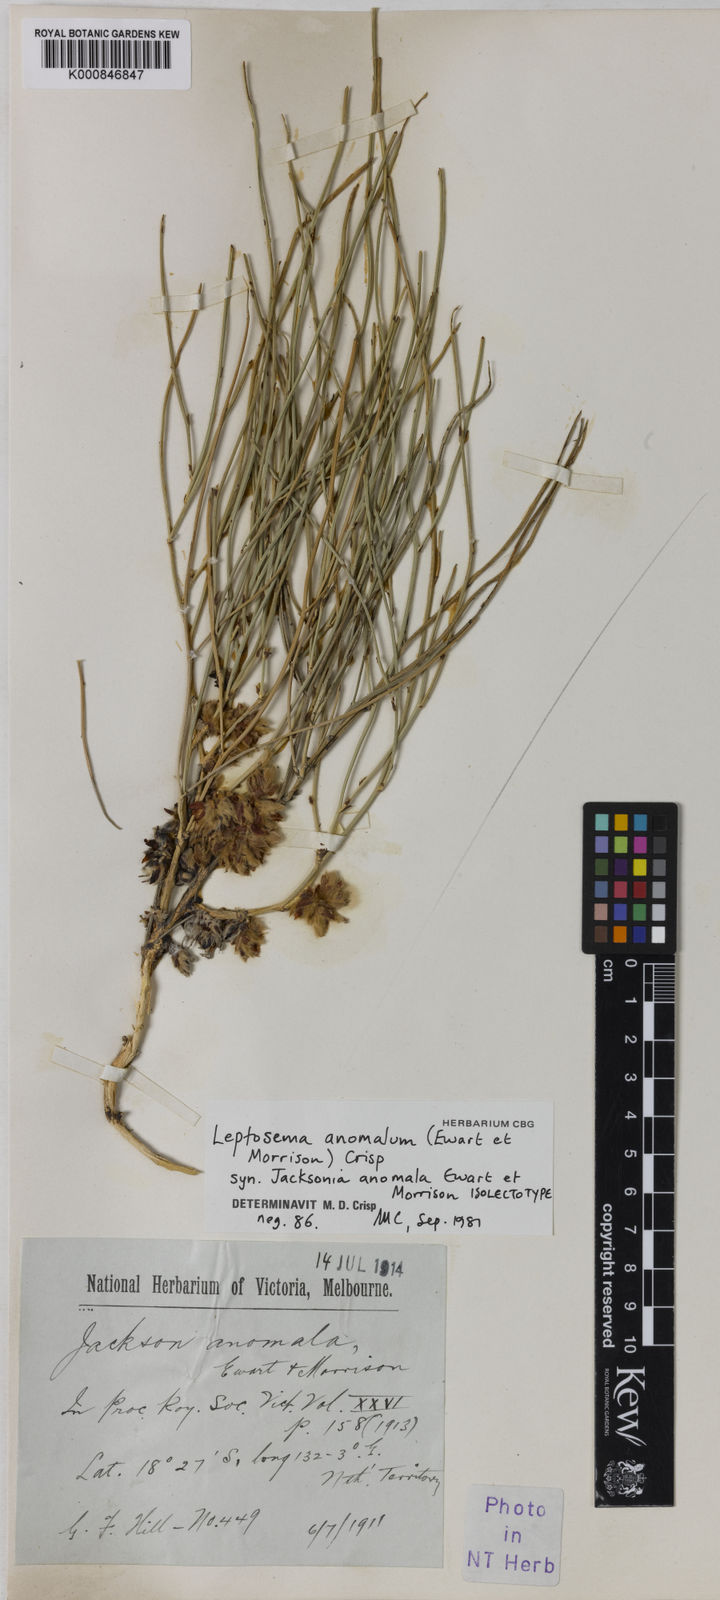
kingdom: Plantae
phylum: Tracheophyta
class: Magnoliopsida
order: Fabales
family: Fabaceae
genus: Leptosema
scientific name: Leptosema anomalum
